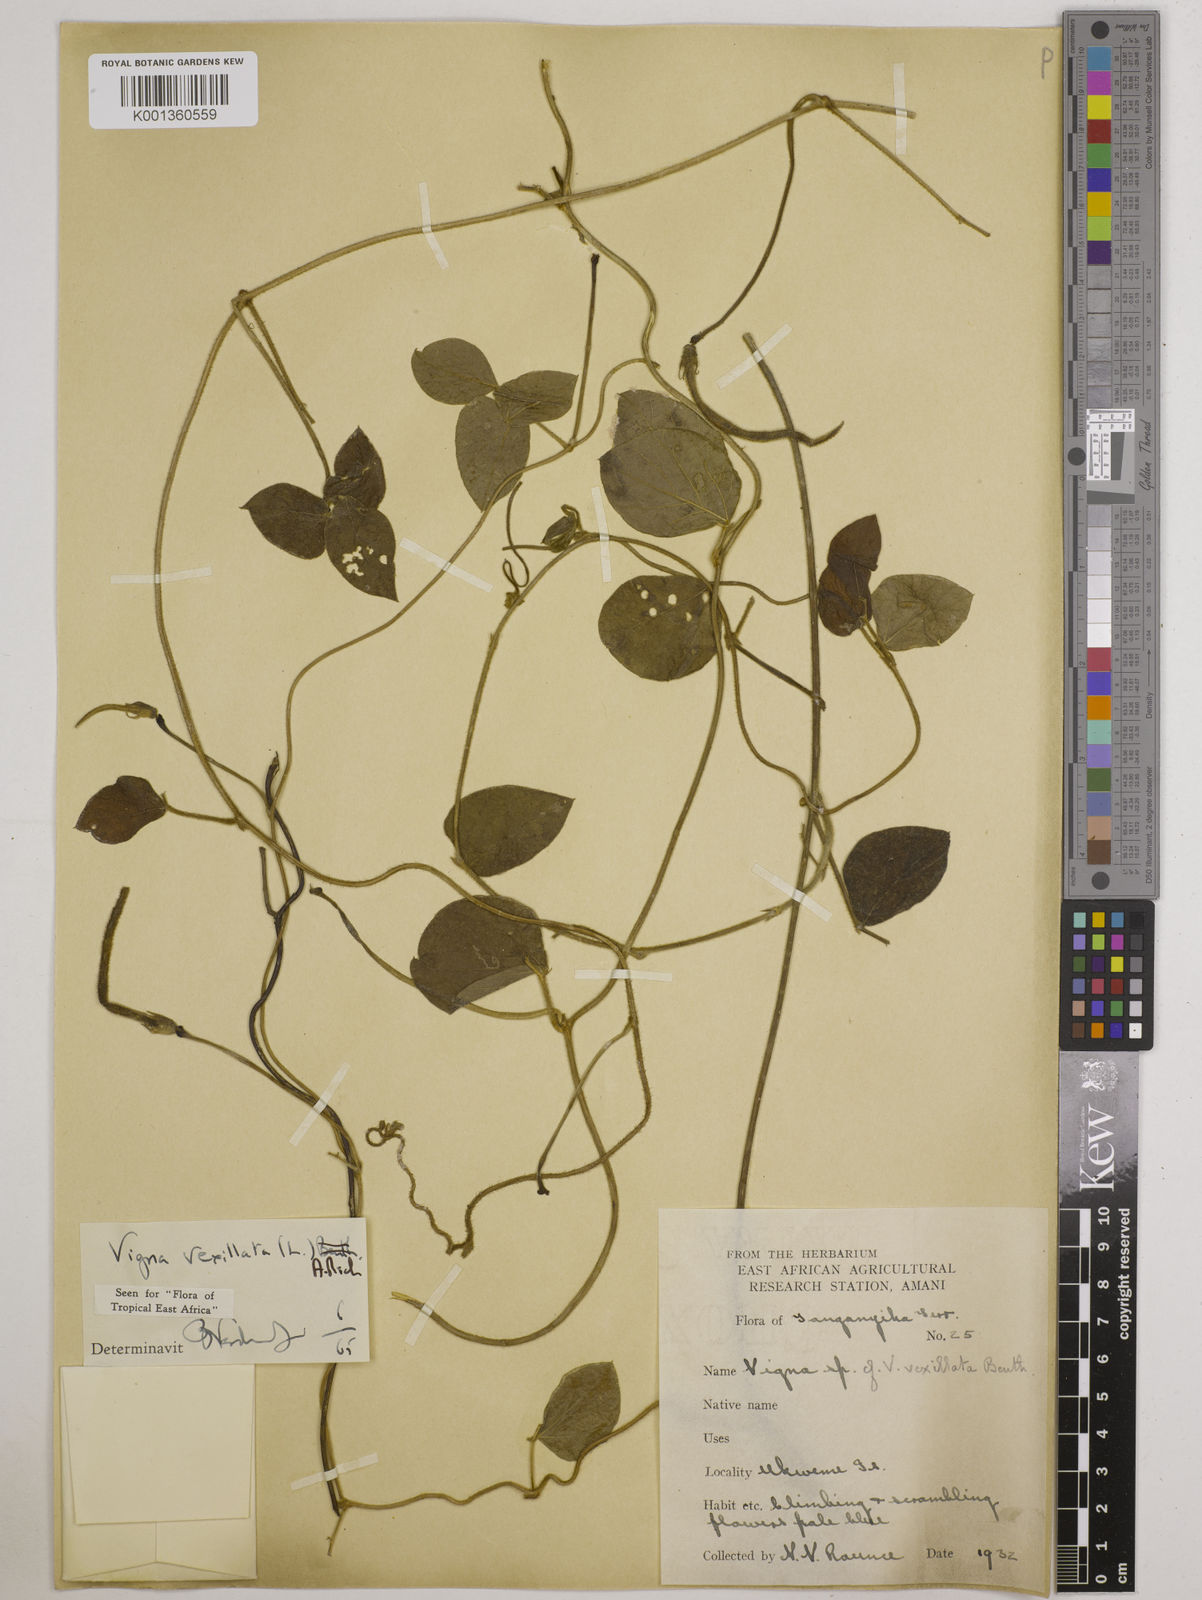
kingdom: Plantae
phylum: Tracheophyta
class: Magnoliopsida
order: Fabales
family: Fabaceae
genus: Vigna
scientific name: Vigna vexillata
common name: Zombi pea
